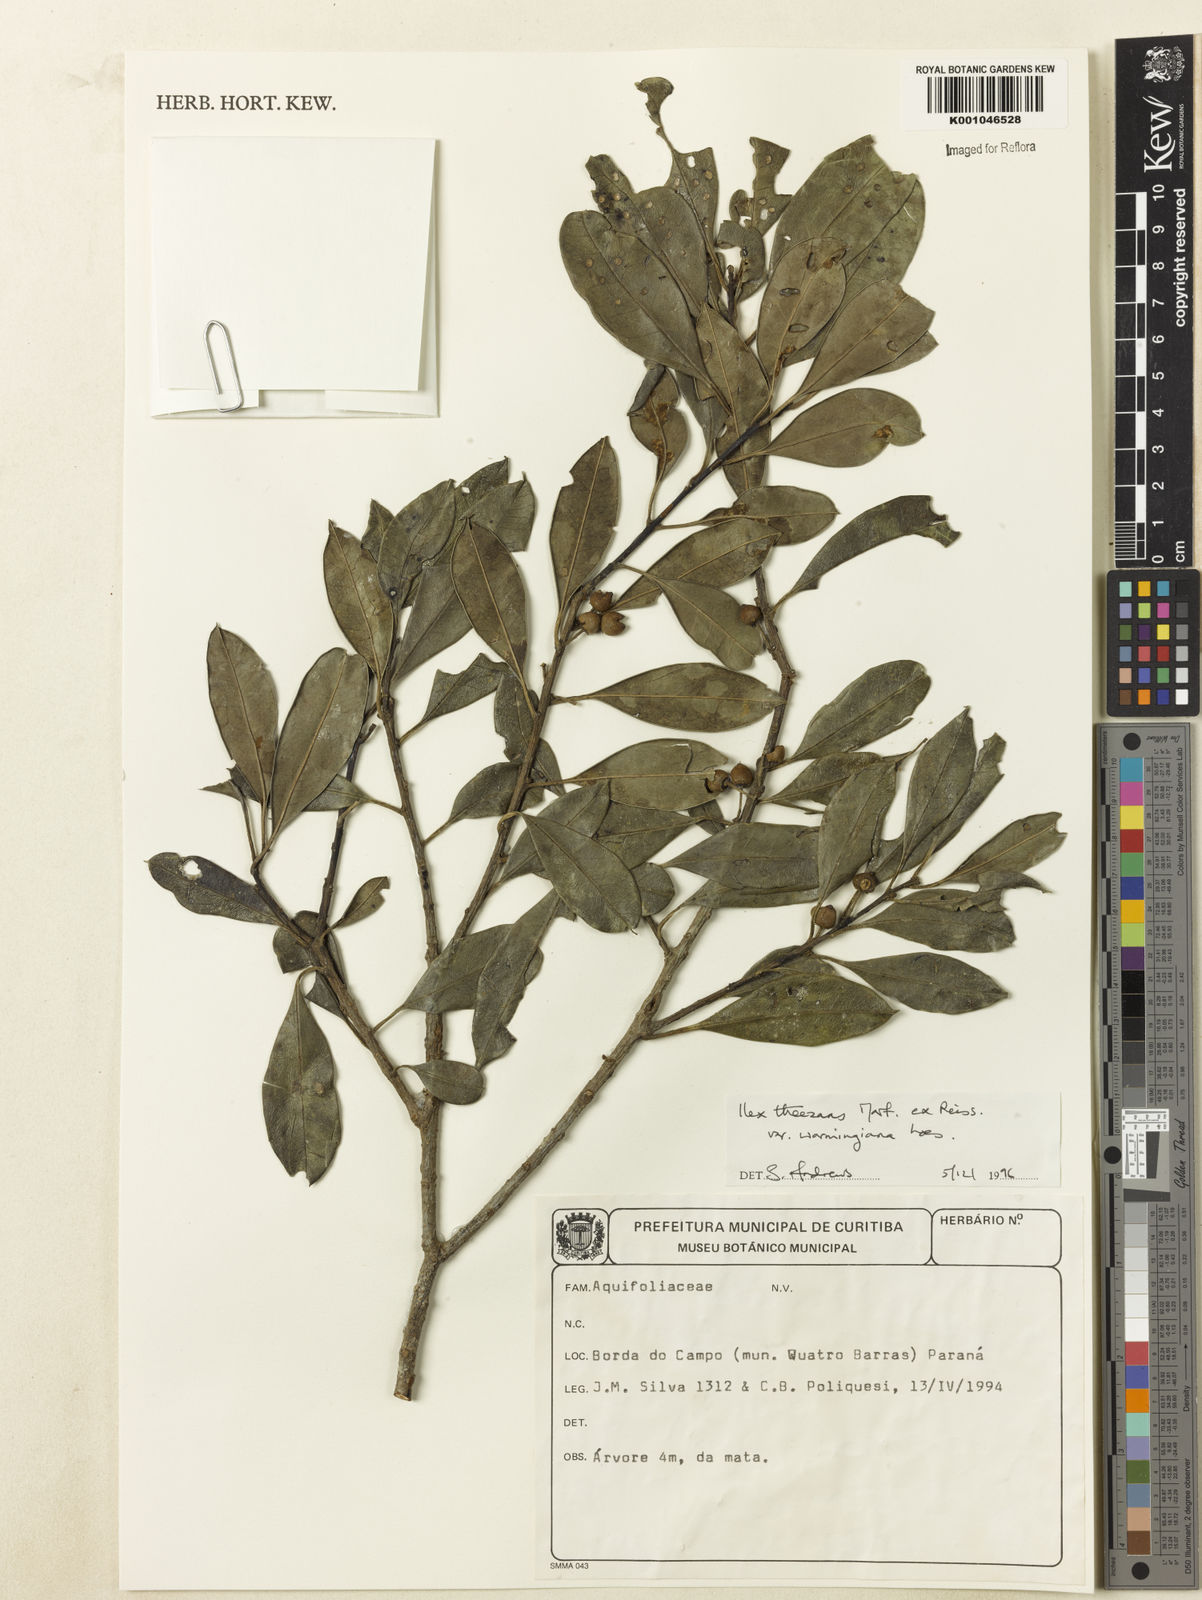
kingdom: Plantae
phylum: Tracheophyta
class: Magnoliopsida
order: Aquifoliales
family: Aquifoliaceae
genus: Ilex
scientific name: Ilex theezans
